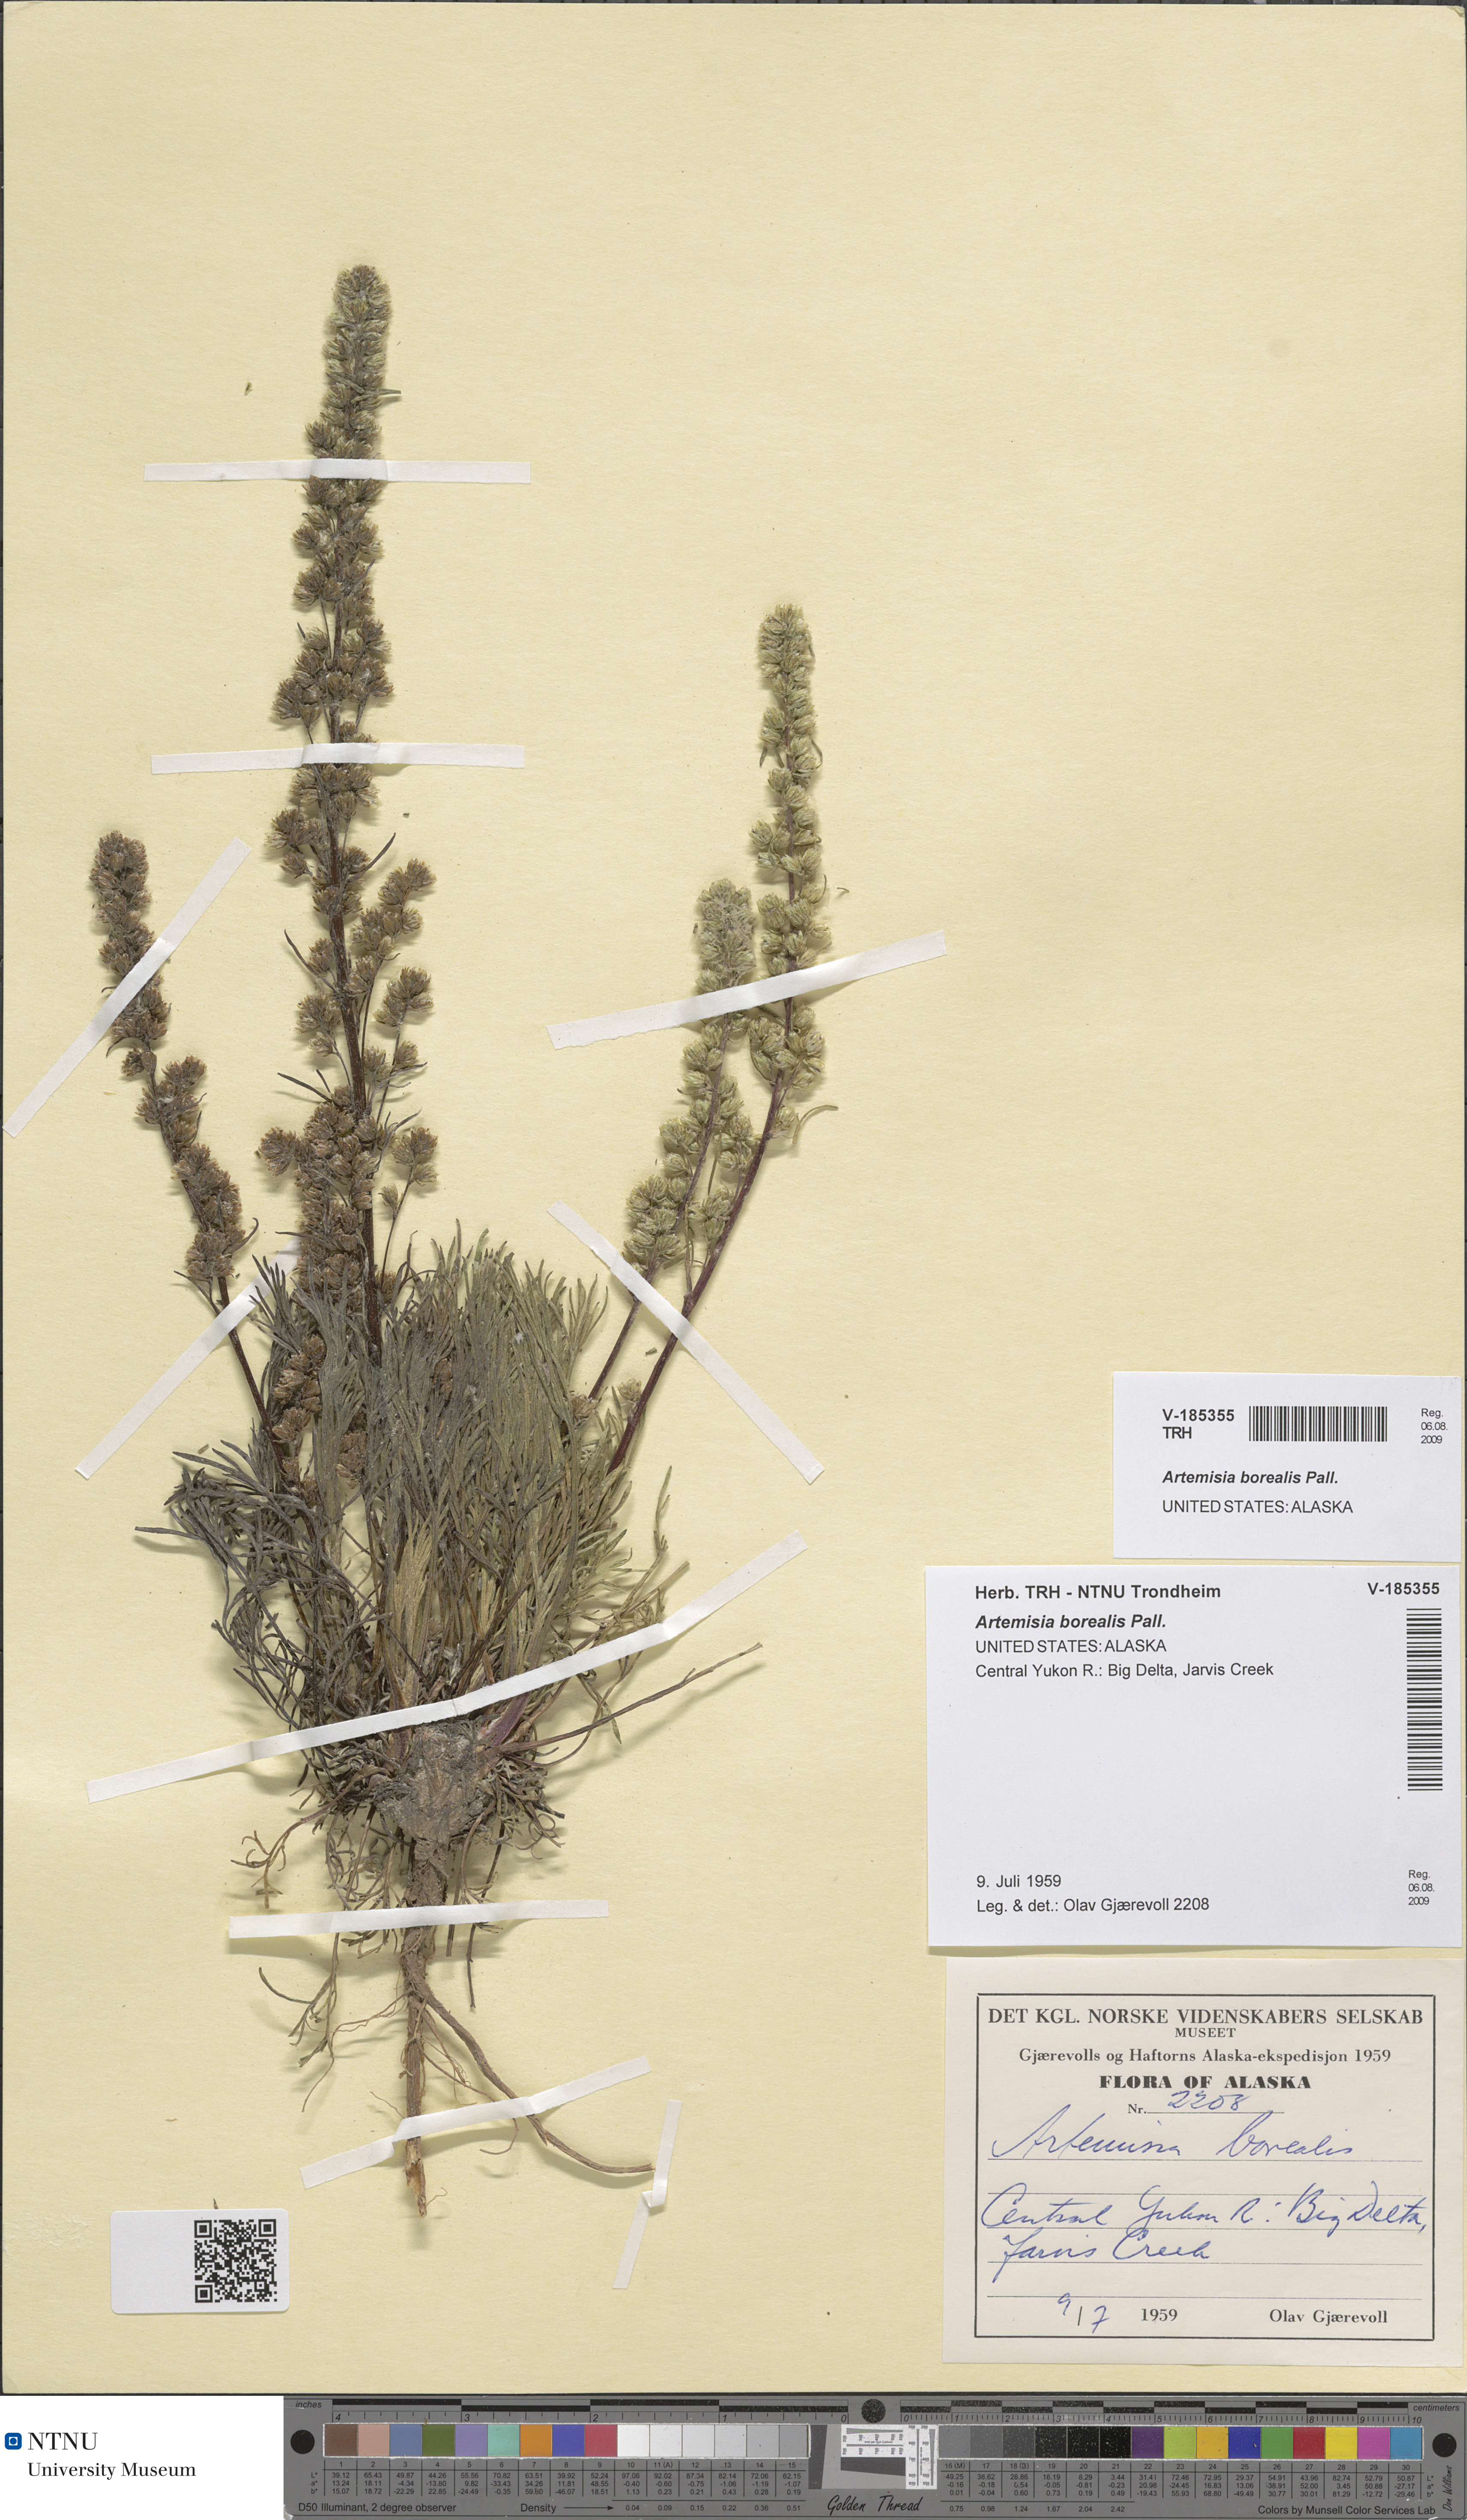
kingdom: Plantae
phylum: Tracheophyta
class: Magnoliopsida
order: Asterales
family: Asteraceae
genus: Artemisia
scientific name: Artemisia borealis
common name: Boreal sage
